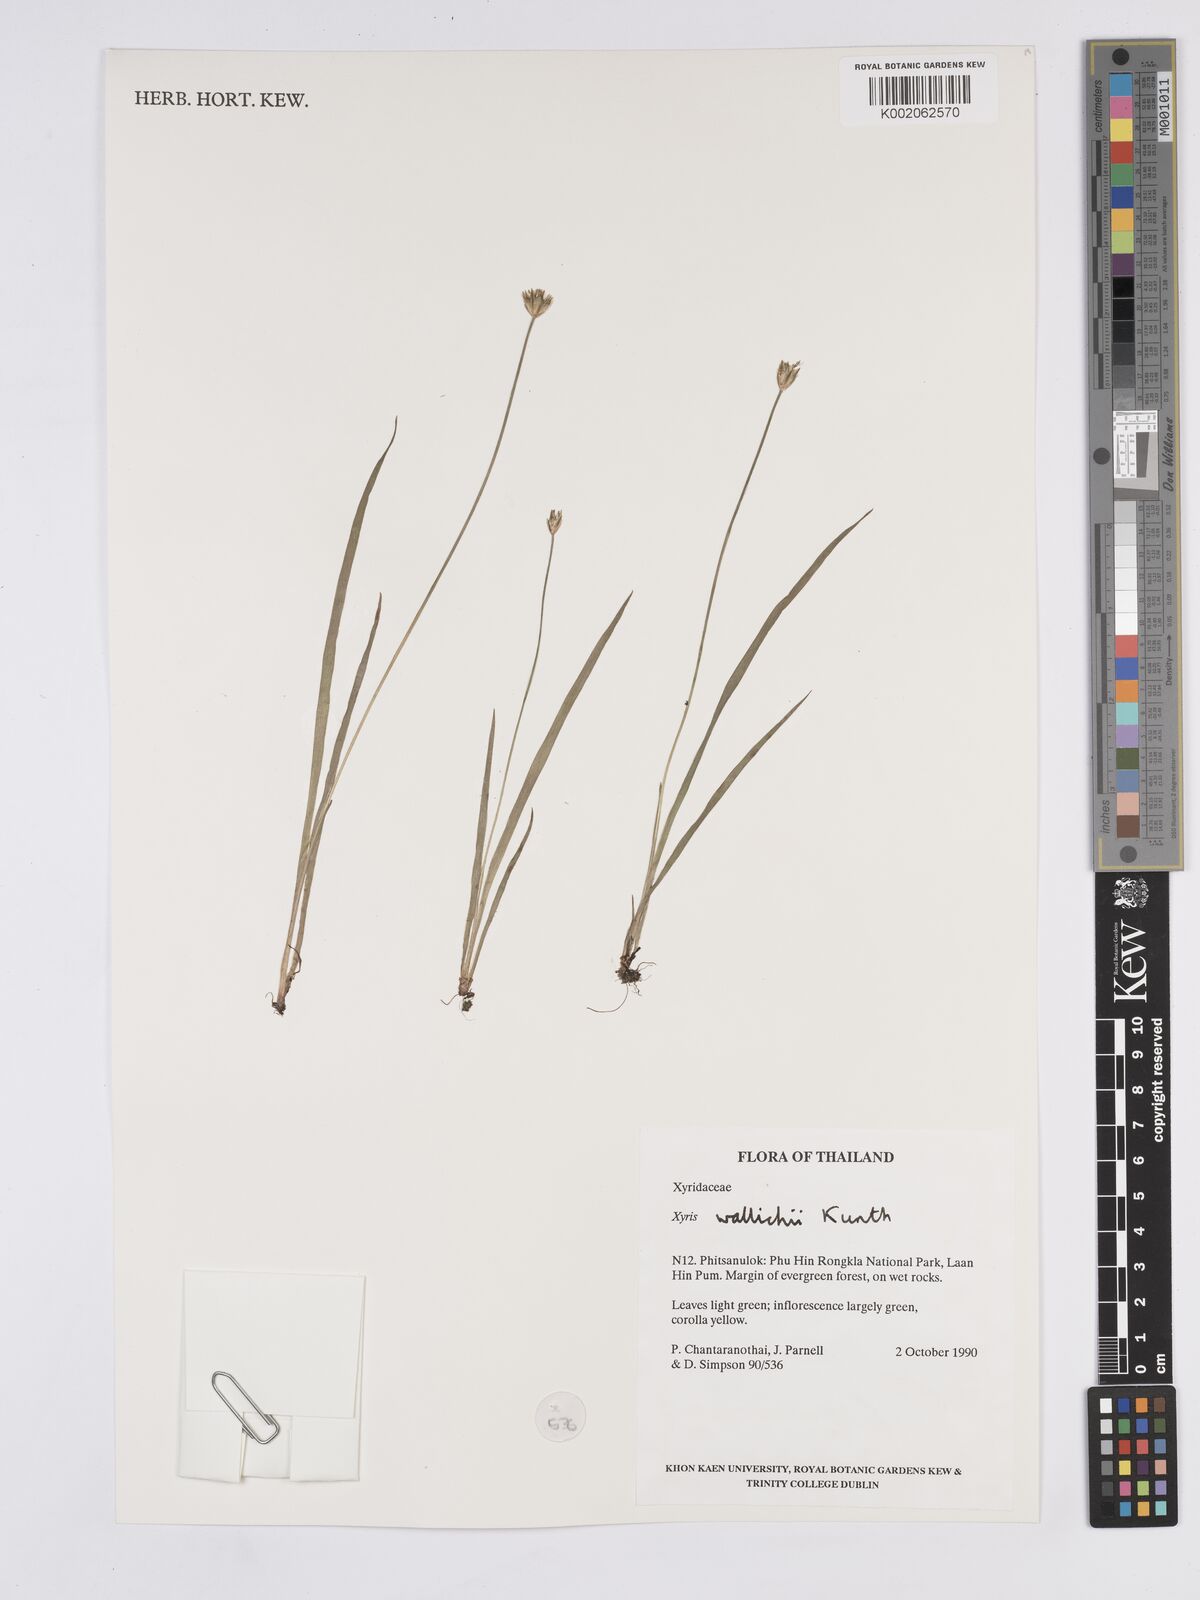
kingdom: Plantae
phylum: Tracheophyta
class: Liliopsida
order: Poales
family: Xyridaceae
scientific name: Xyridaceae
